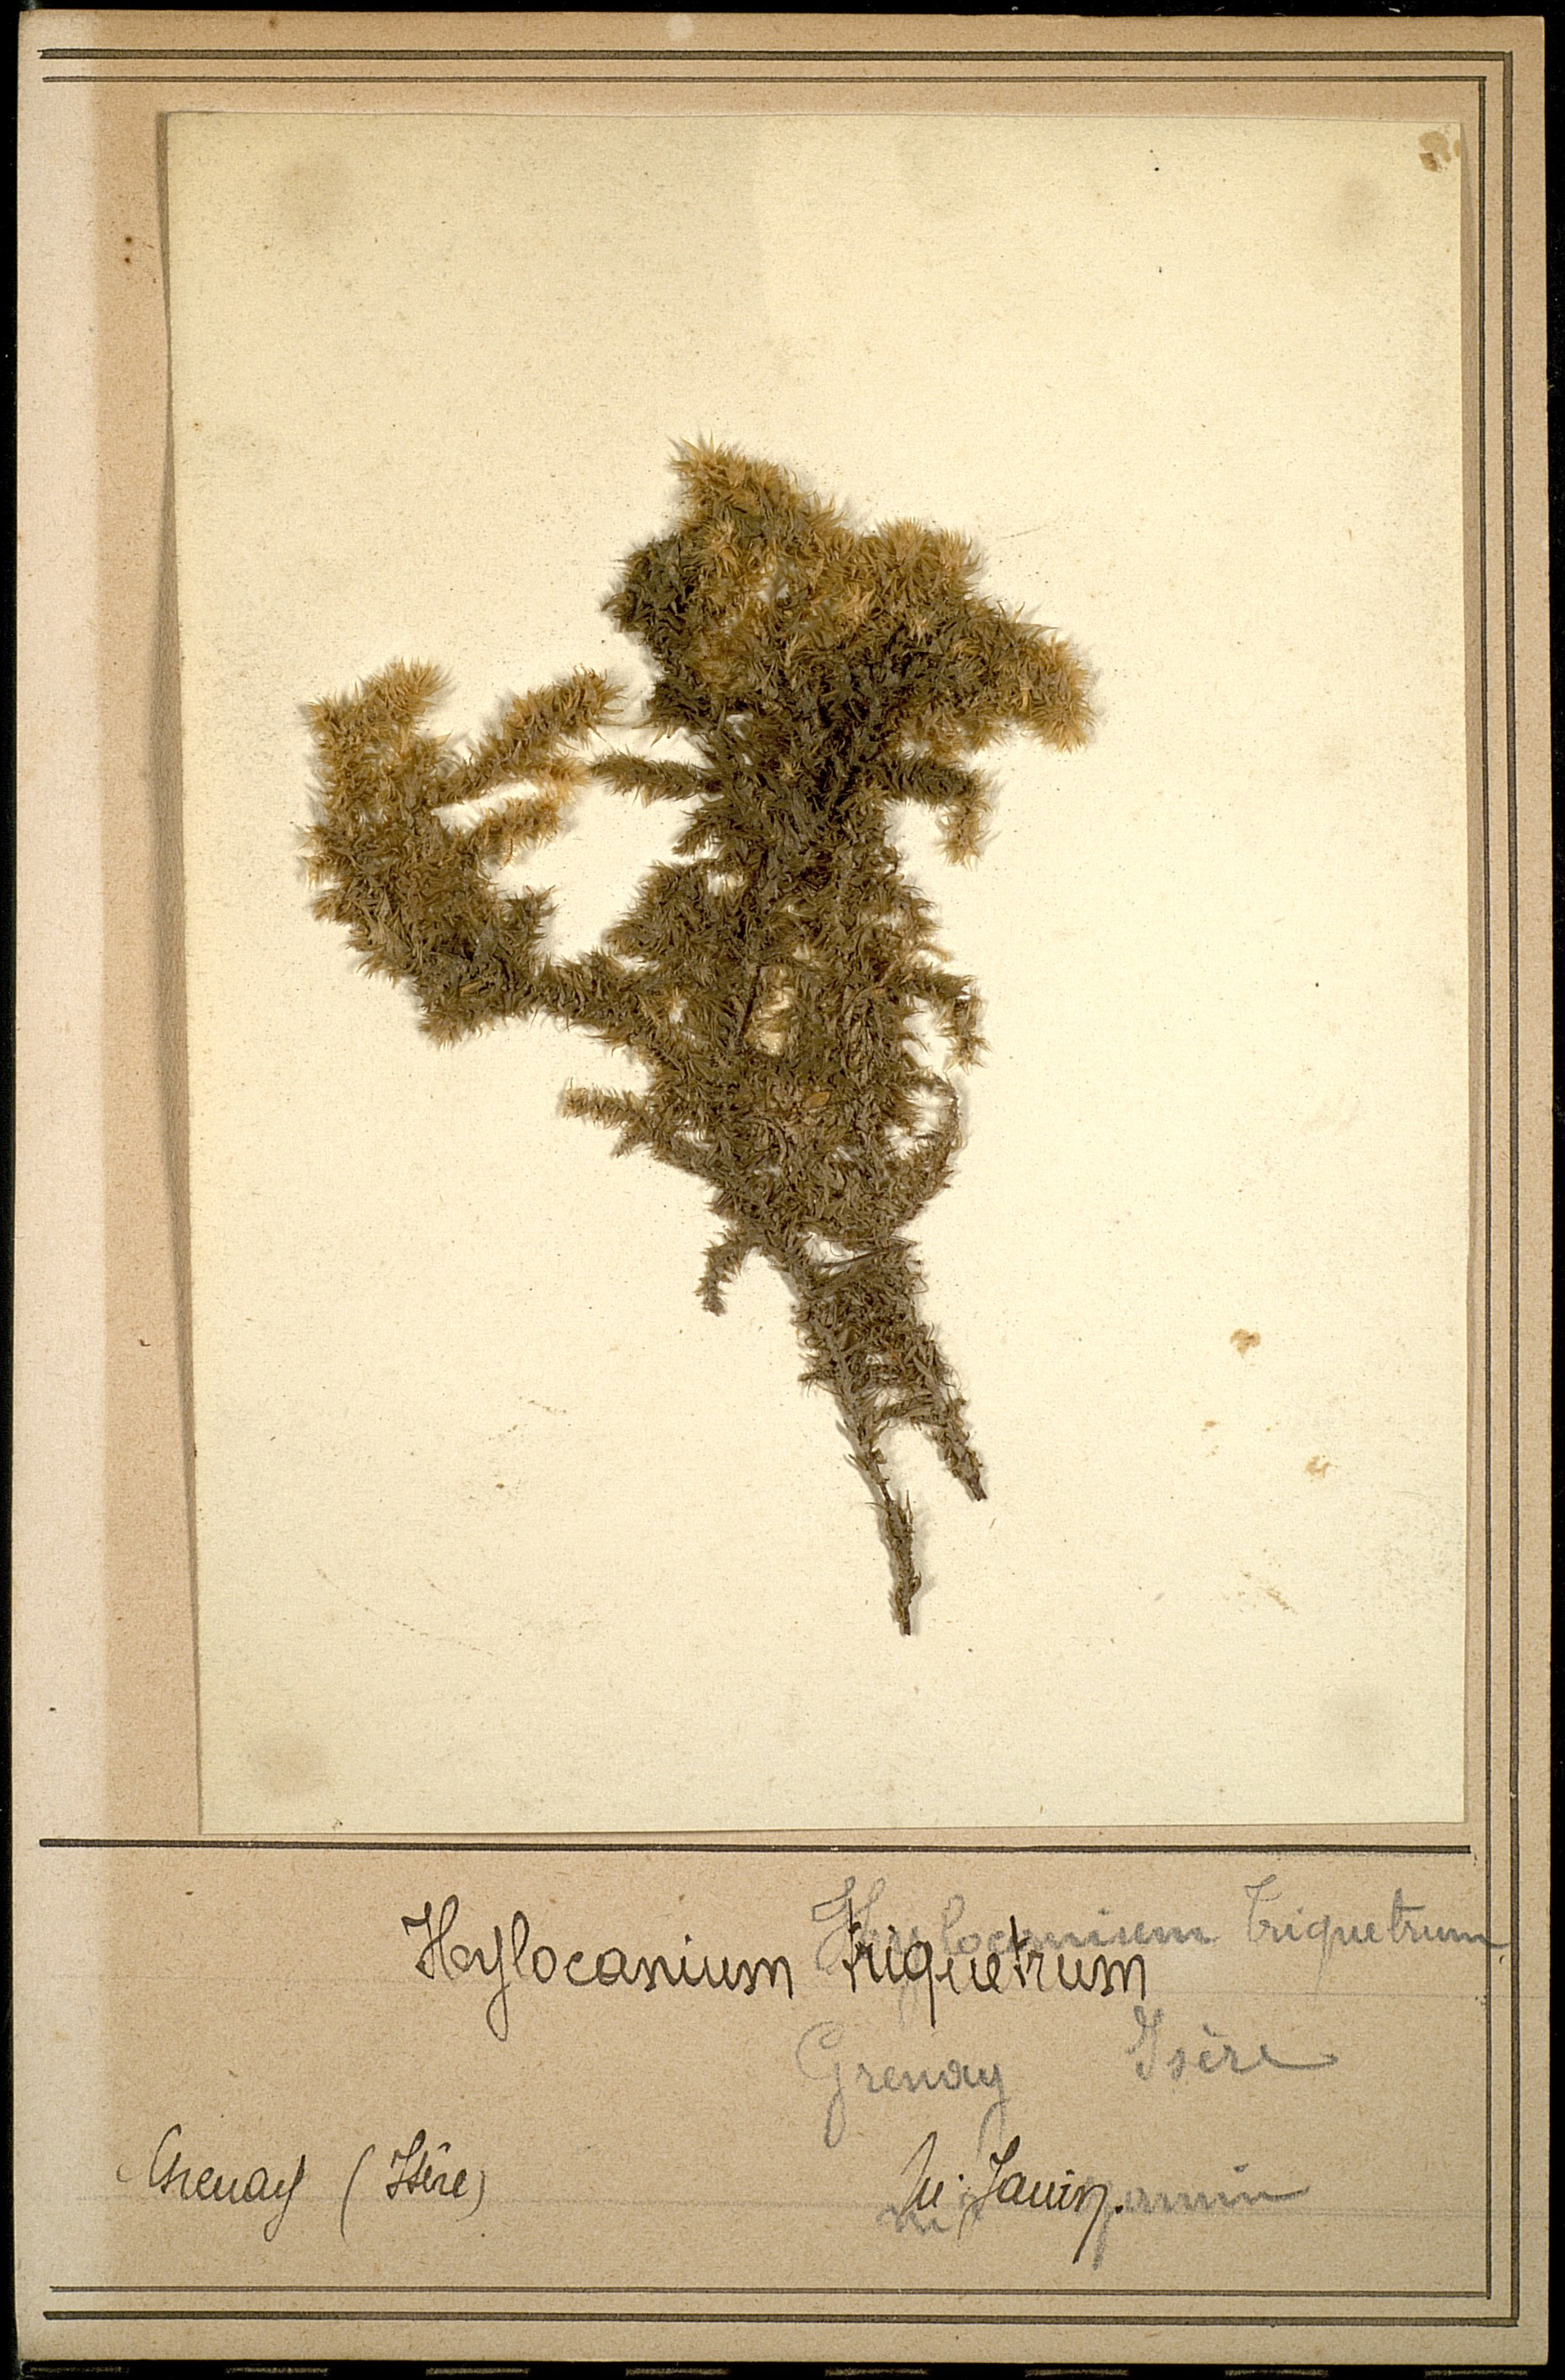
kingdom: Plantae
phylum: Bryophyta
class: Bryopsida
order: Hypnales
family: Hylocomiaceae
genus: Hylocomiadelphus
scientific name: Hylocomiadelphus triquetrus
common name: Rough goose neck moss
